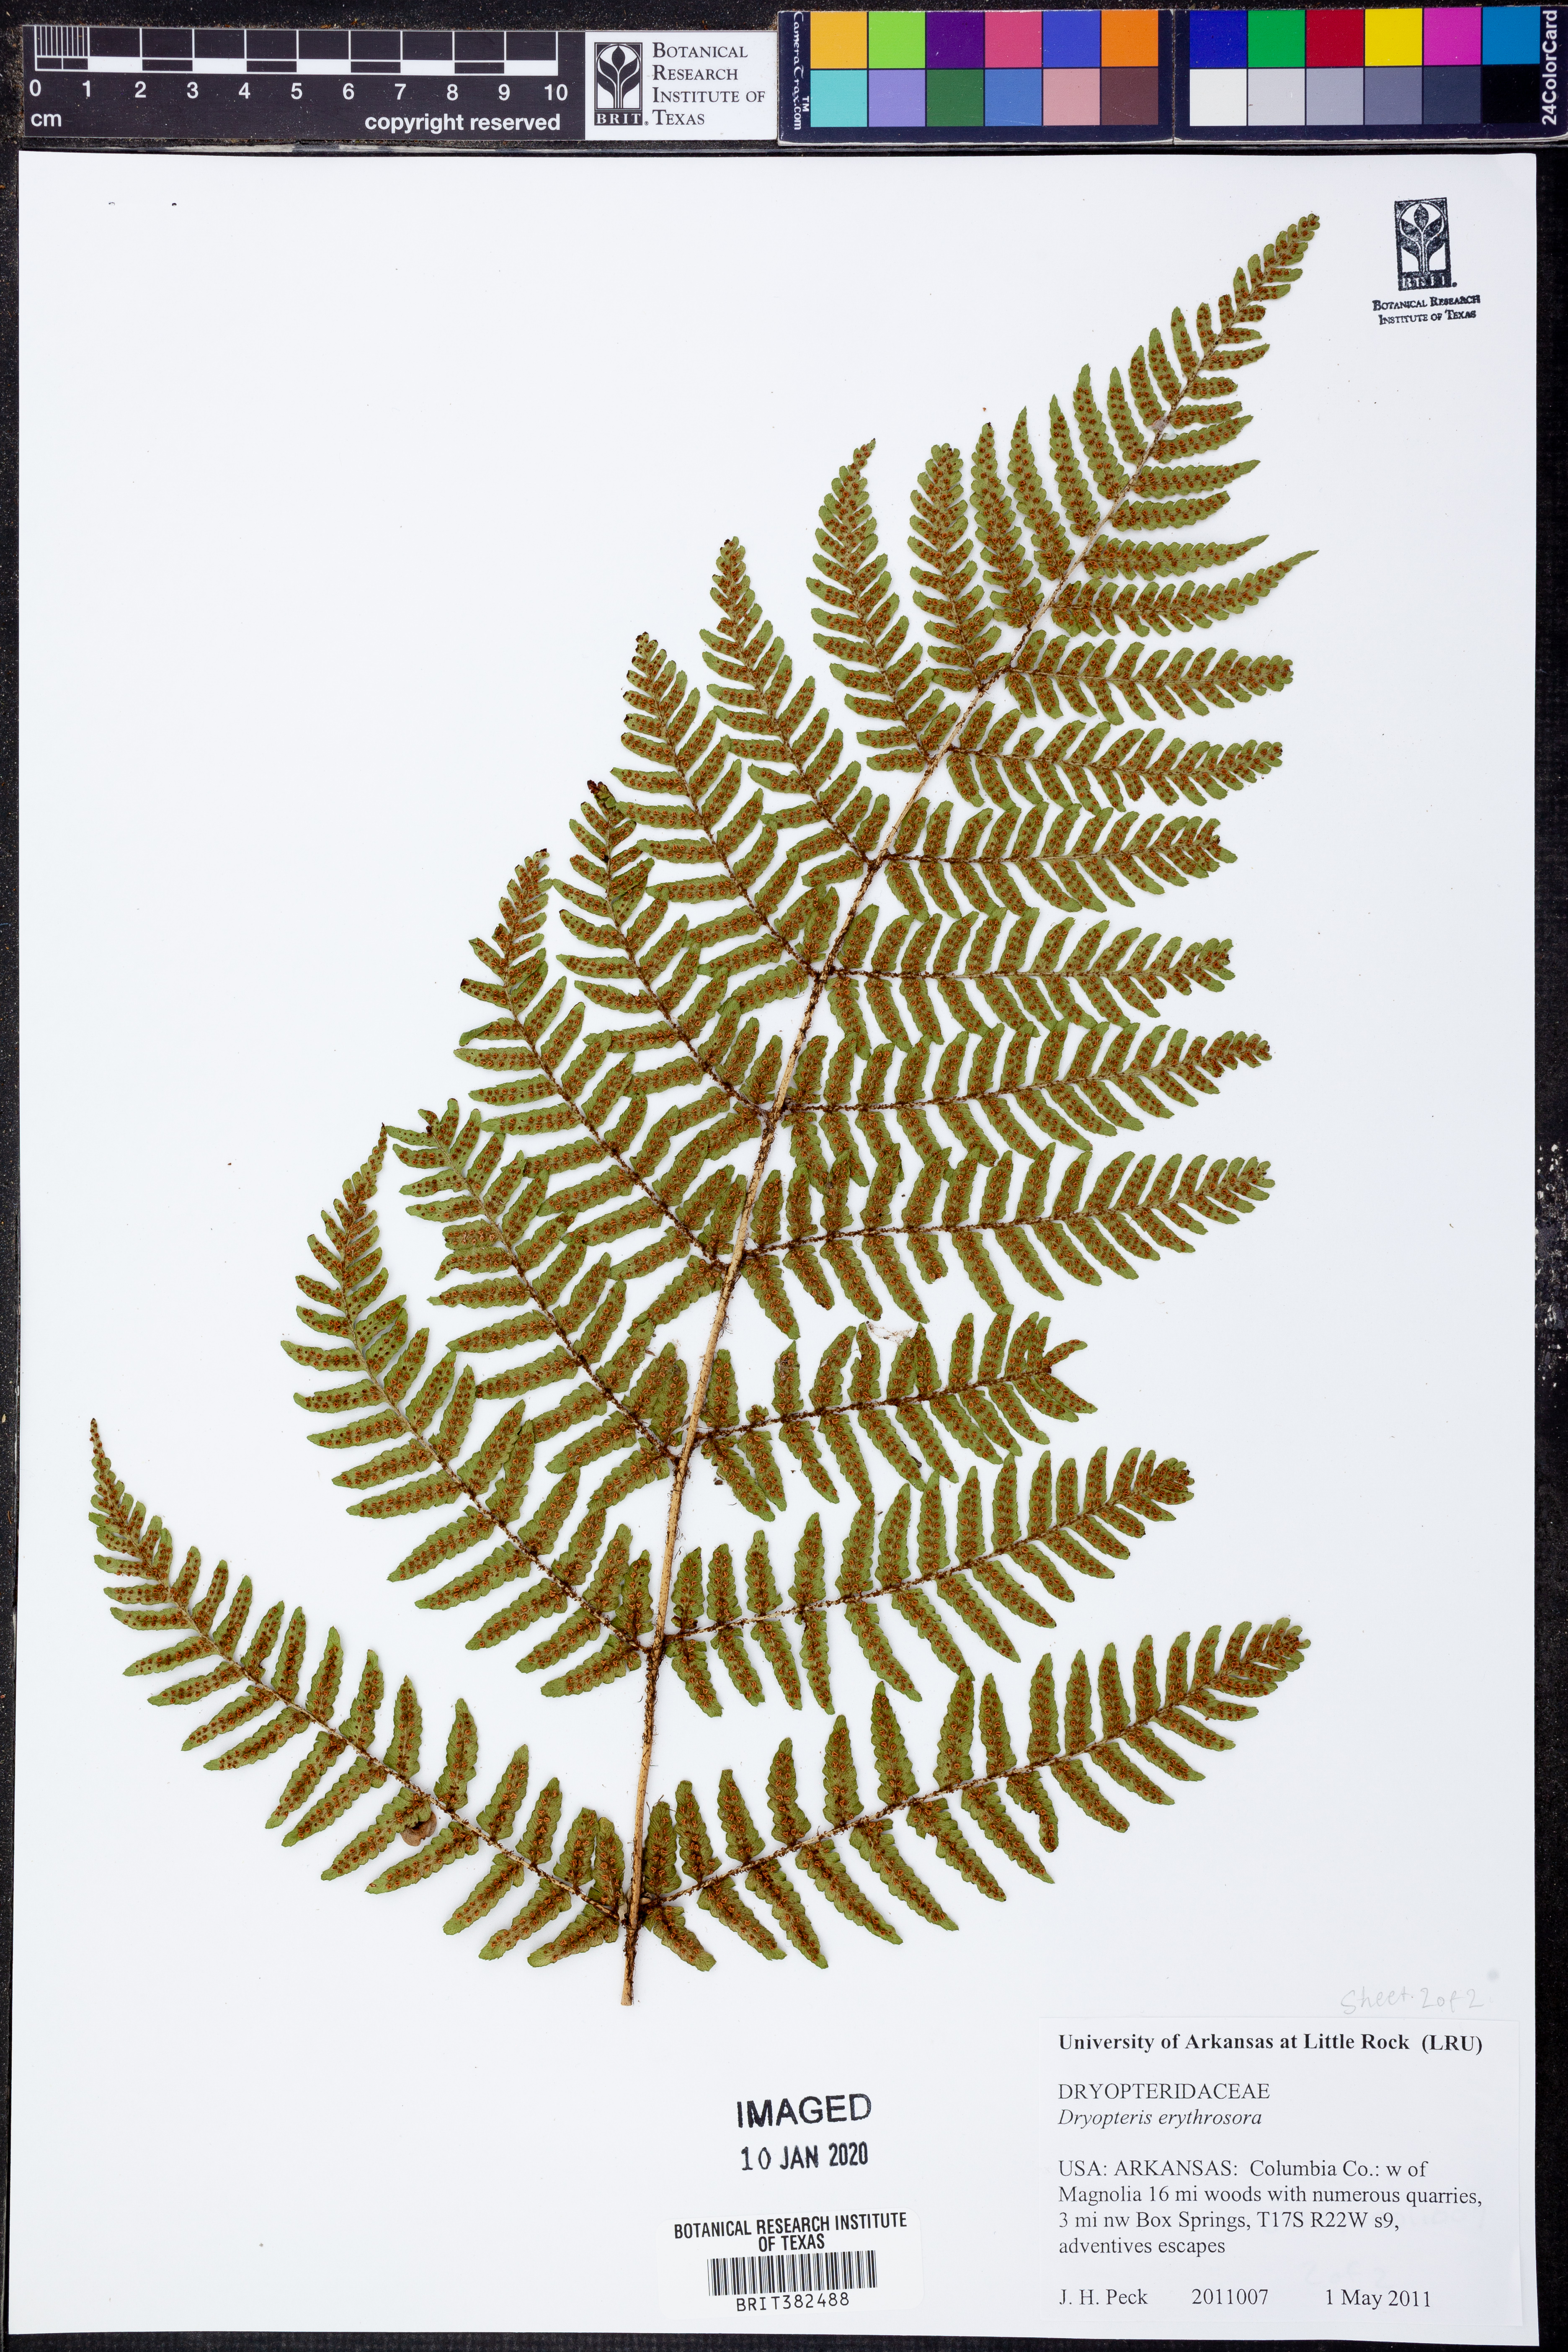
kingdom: Plantae
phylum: Tracheophyta
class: Polypodiopsida
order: Polypodiales
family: Dryopteridaceae
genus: Dryopteris
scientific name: Dryopteris erythrosora
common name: Autumn fern
